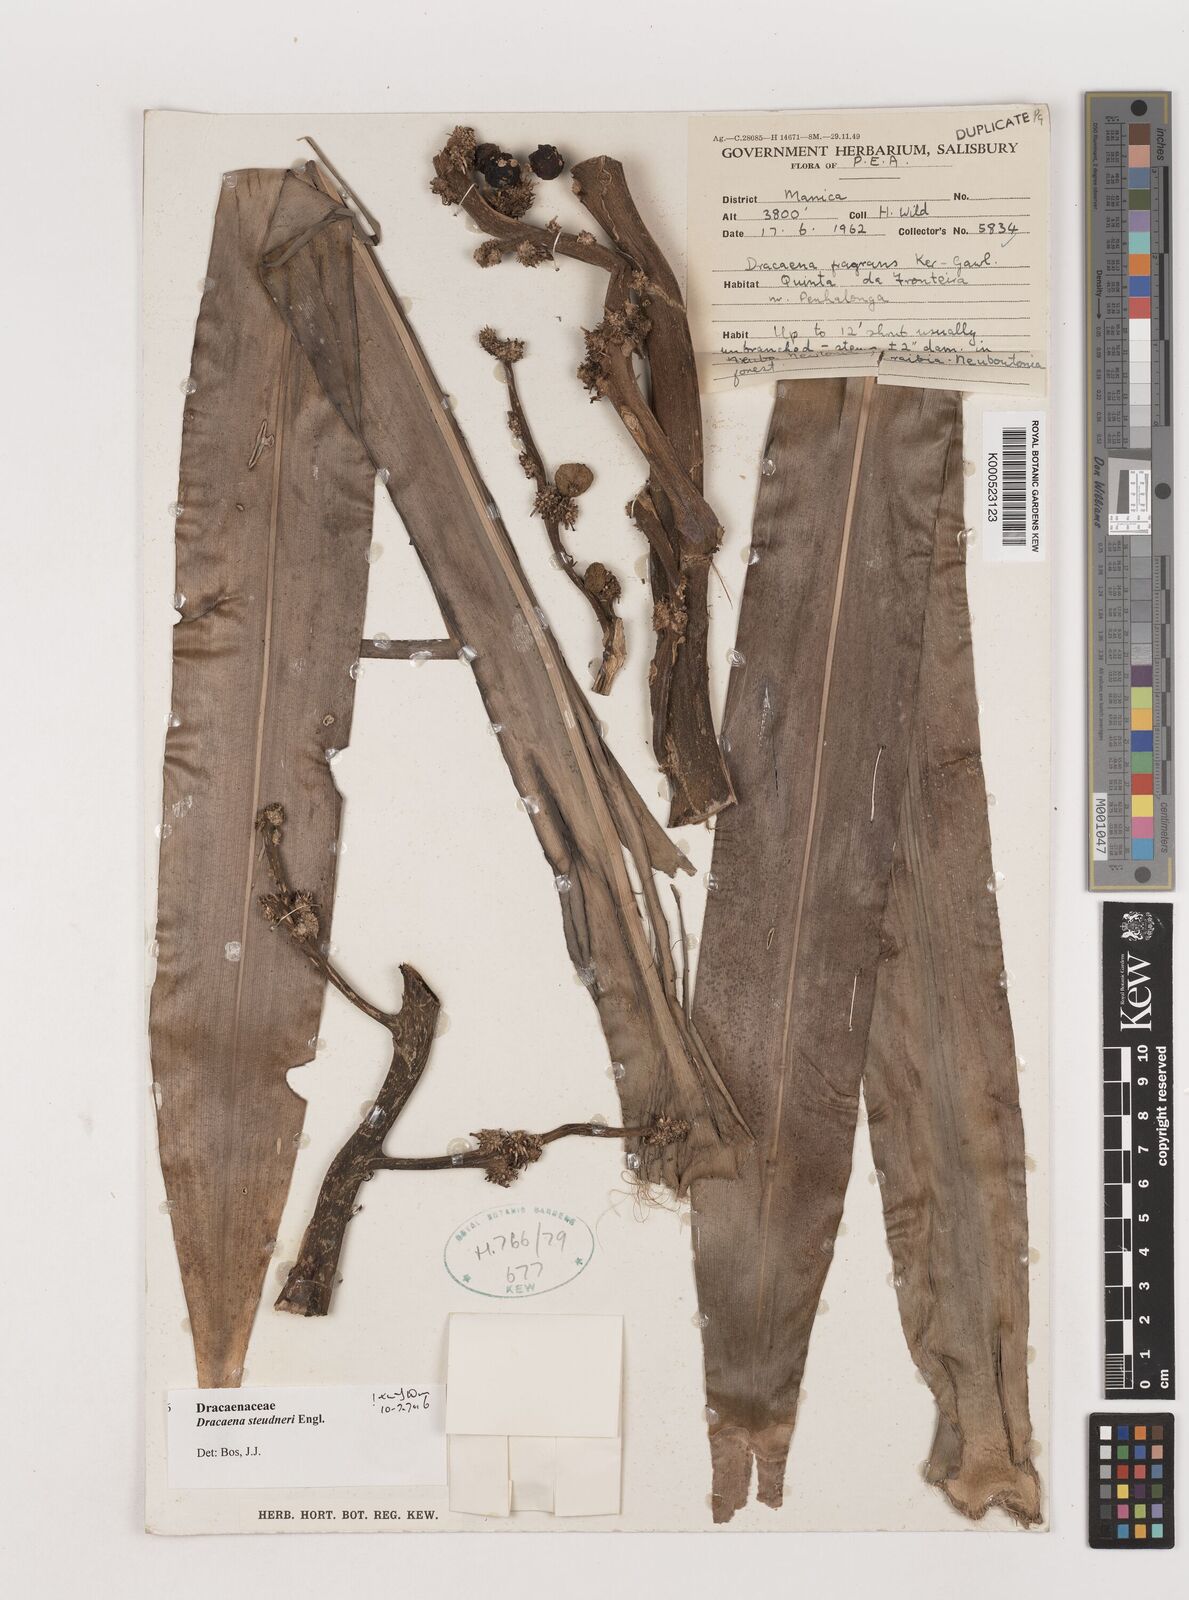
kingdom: Plantae
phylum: Tracheophyta
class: Liliopsida
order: Asparagales
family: Asparagaceae
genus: Dracaena
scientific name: Dracaena steudneri
